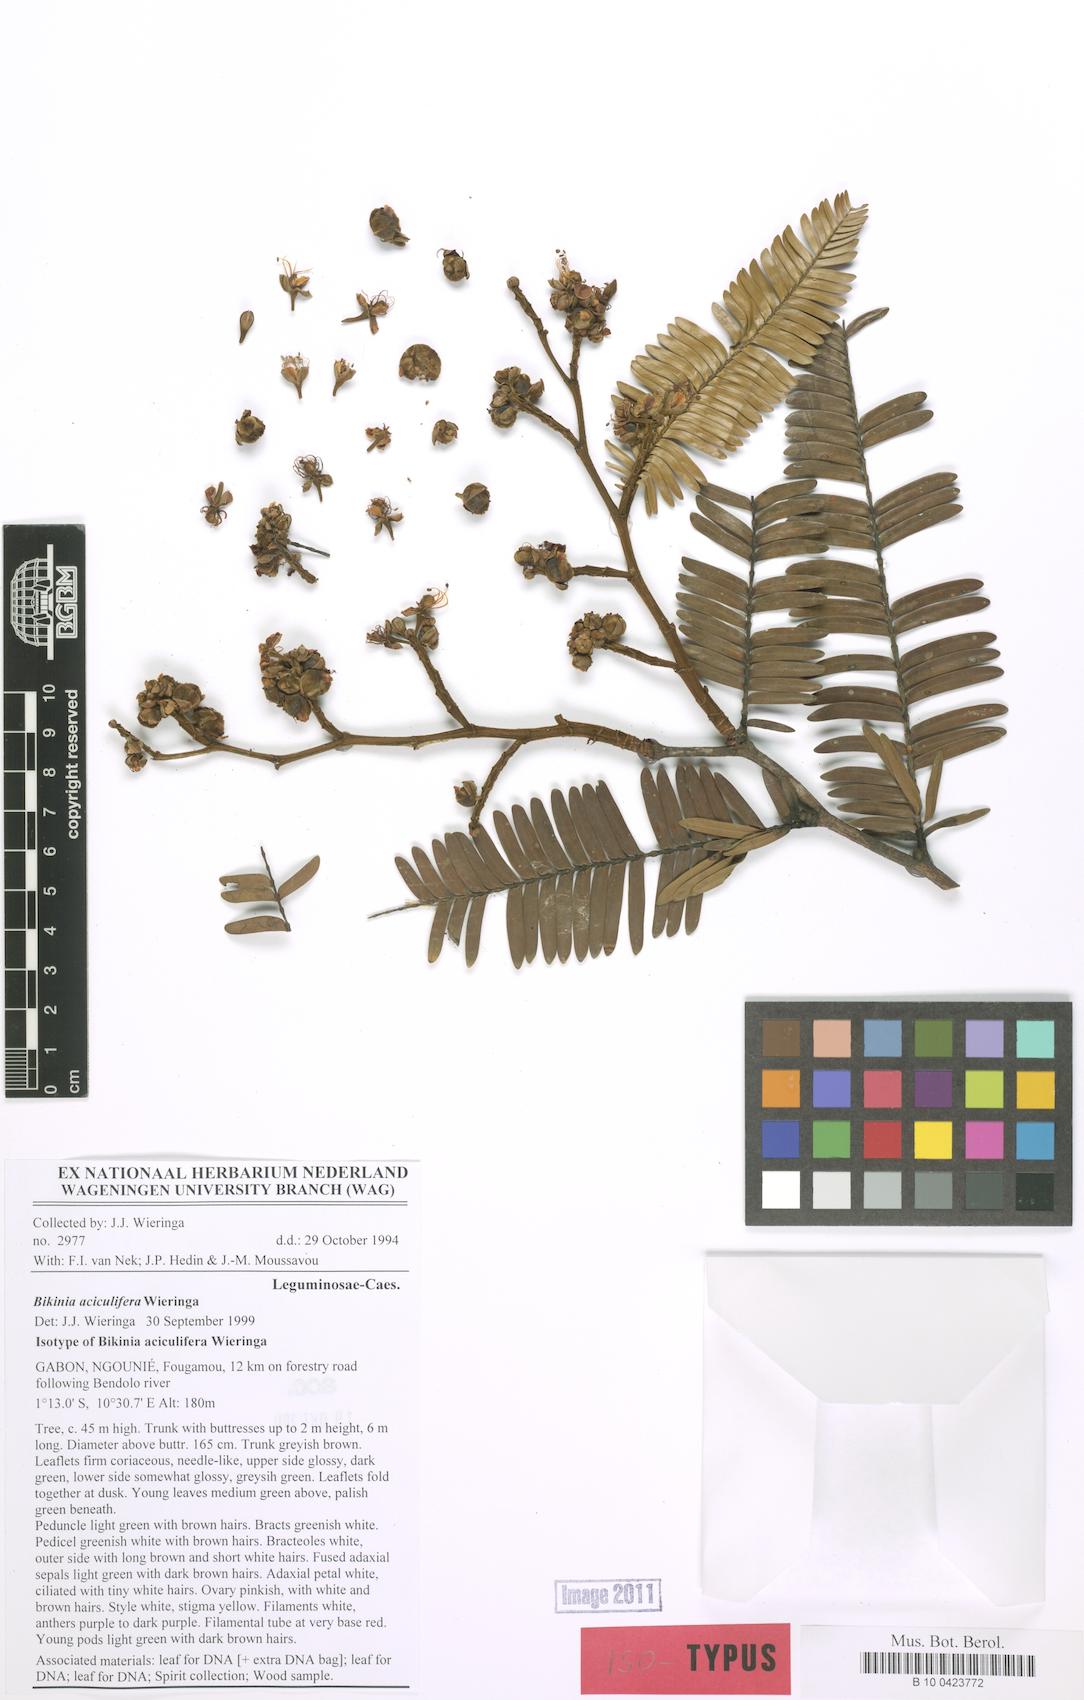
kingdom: Plantae
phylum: Tracheophyta
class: Magnoliopsida
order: Fabales
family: Fabaceae
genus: Bikinia
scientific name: Bikinia aciculifera
